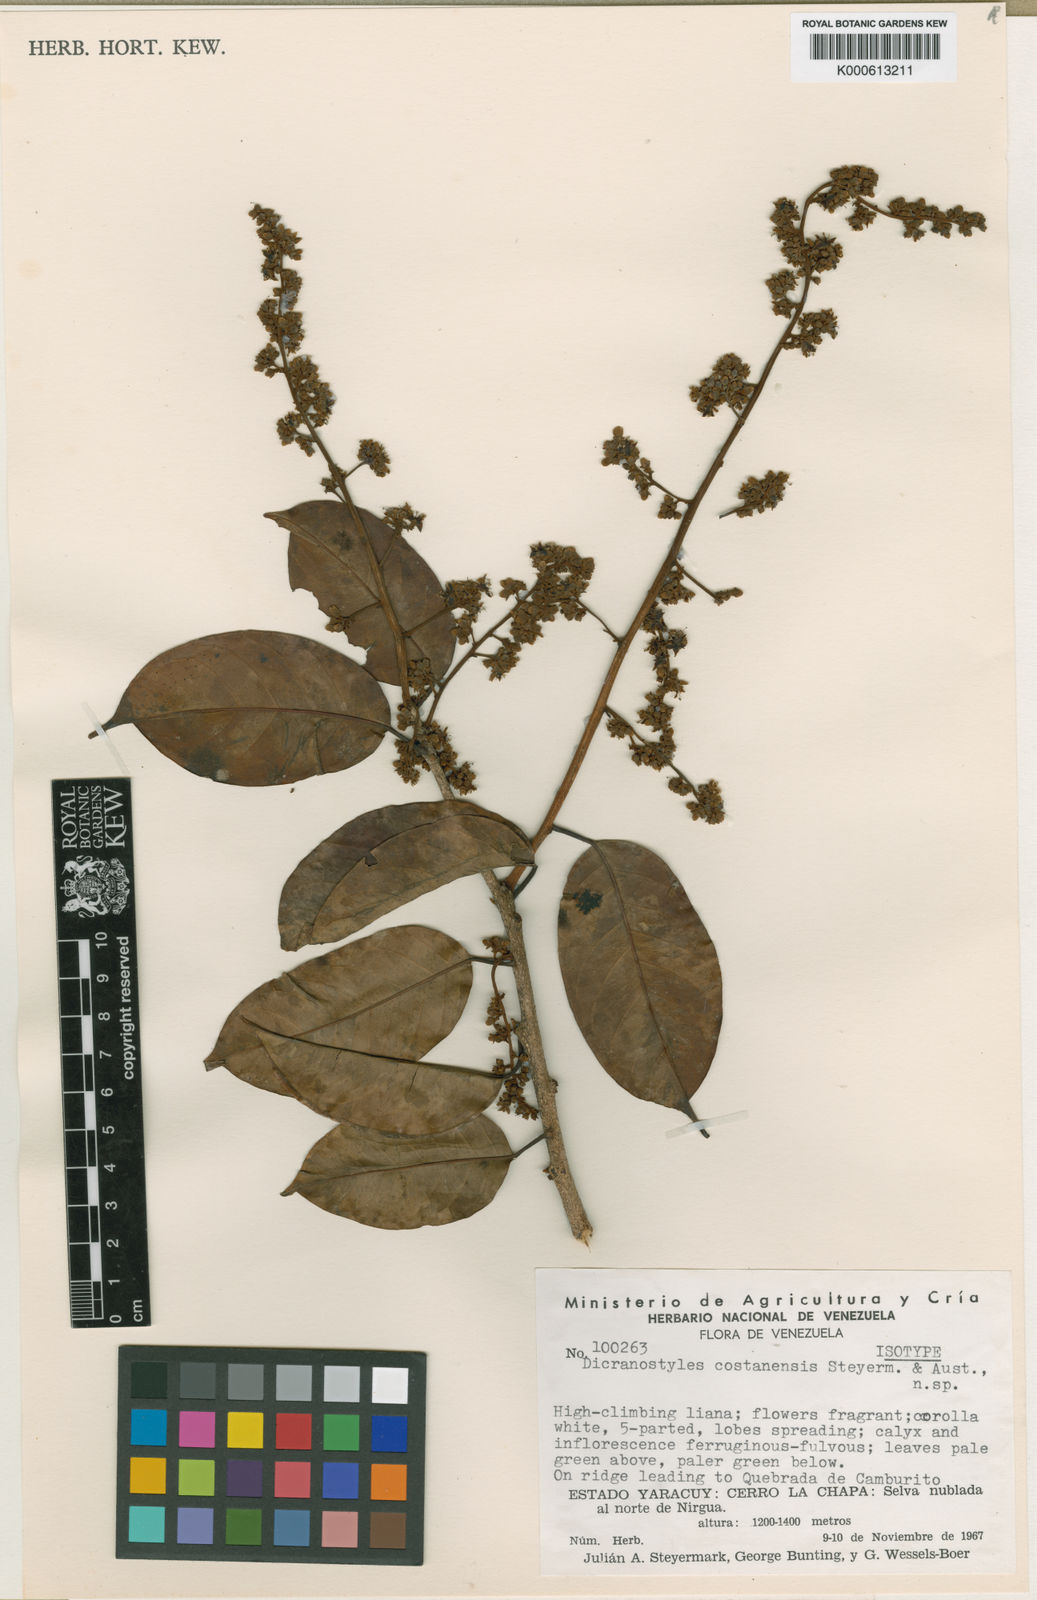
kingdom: Plantae
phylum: Tracheophyta
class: Magnoliopsida
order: Solanales
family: Convolvulaceae
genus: Dicranostyles
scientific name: Dicranostyles costanensis
